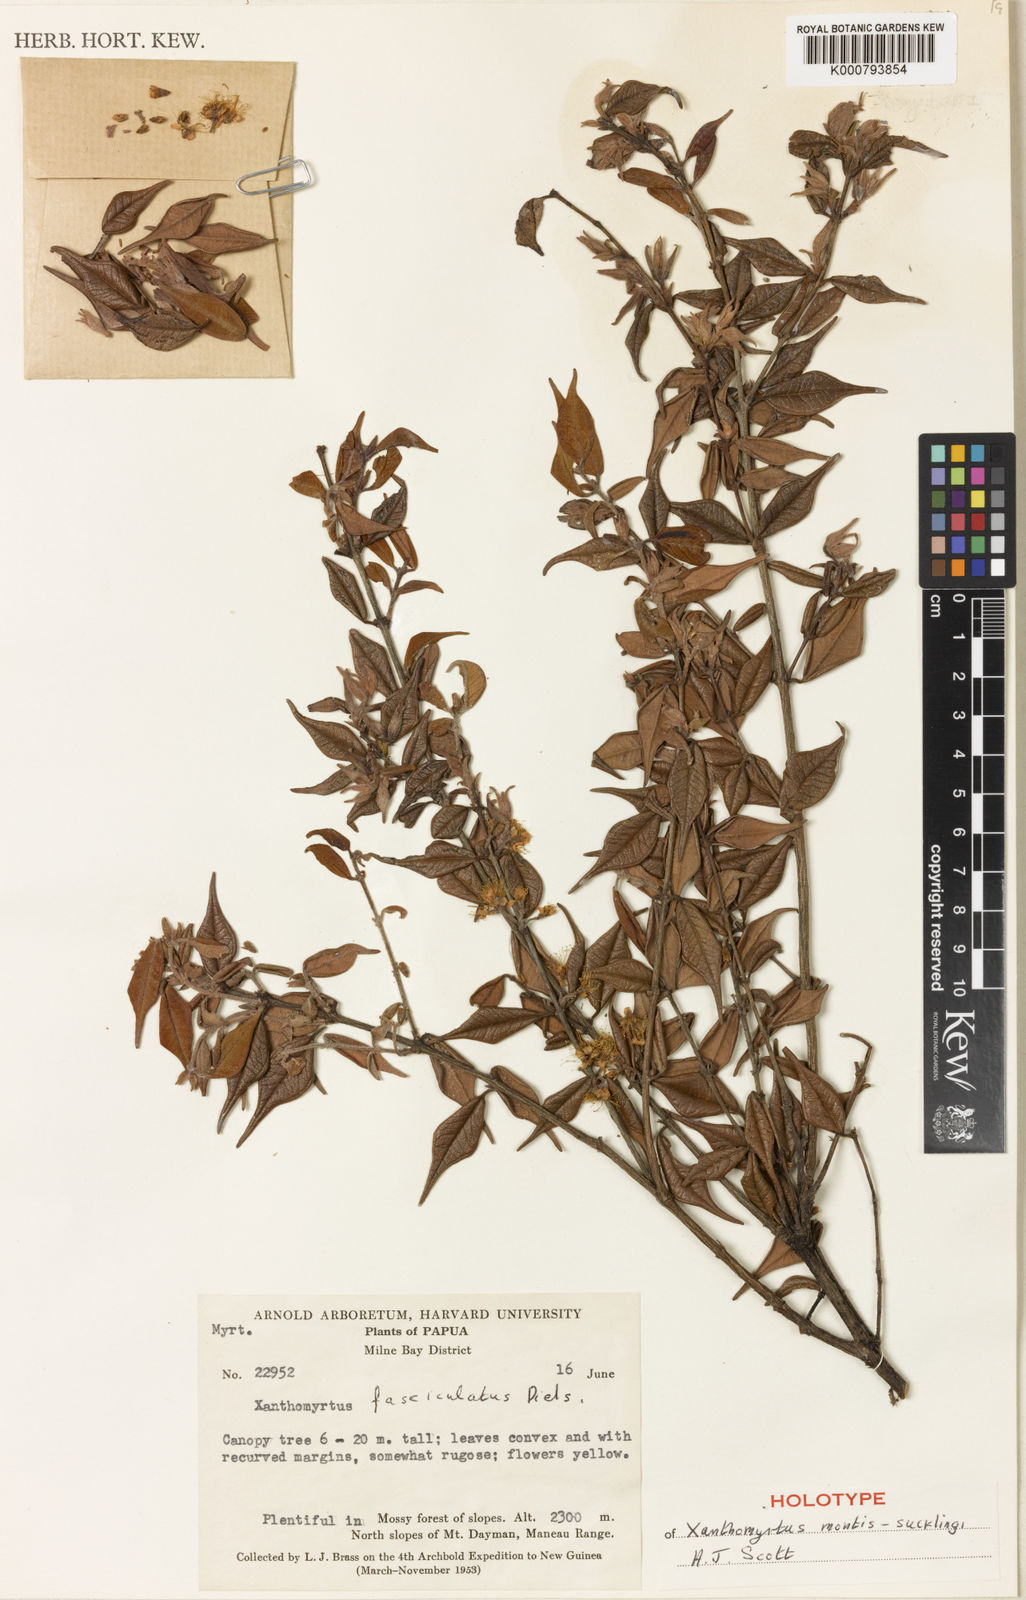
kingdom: Plantae
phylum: Tracheophyta
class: Magnoliopsida
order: Myrtales
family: Myrtaceae
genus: Xanthomyrtus
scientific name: Xanthomyrtus montis-sucklingii
